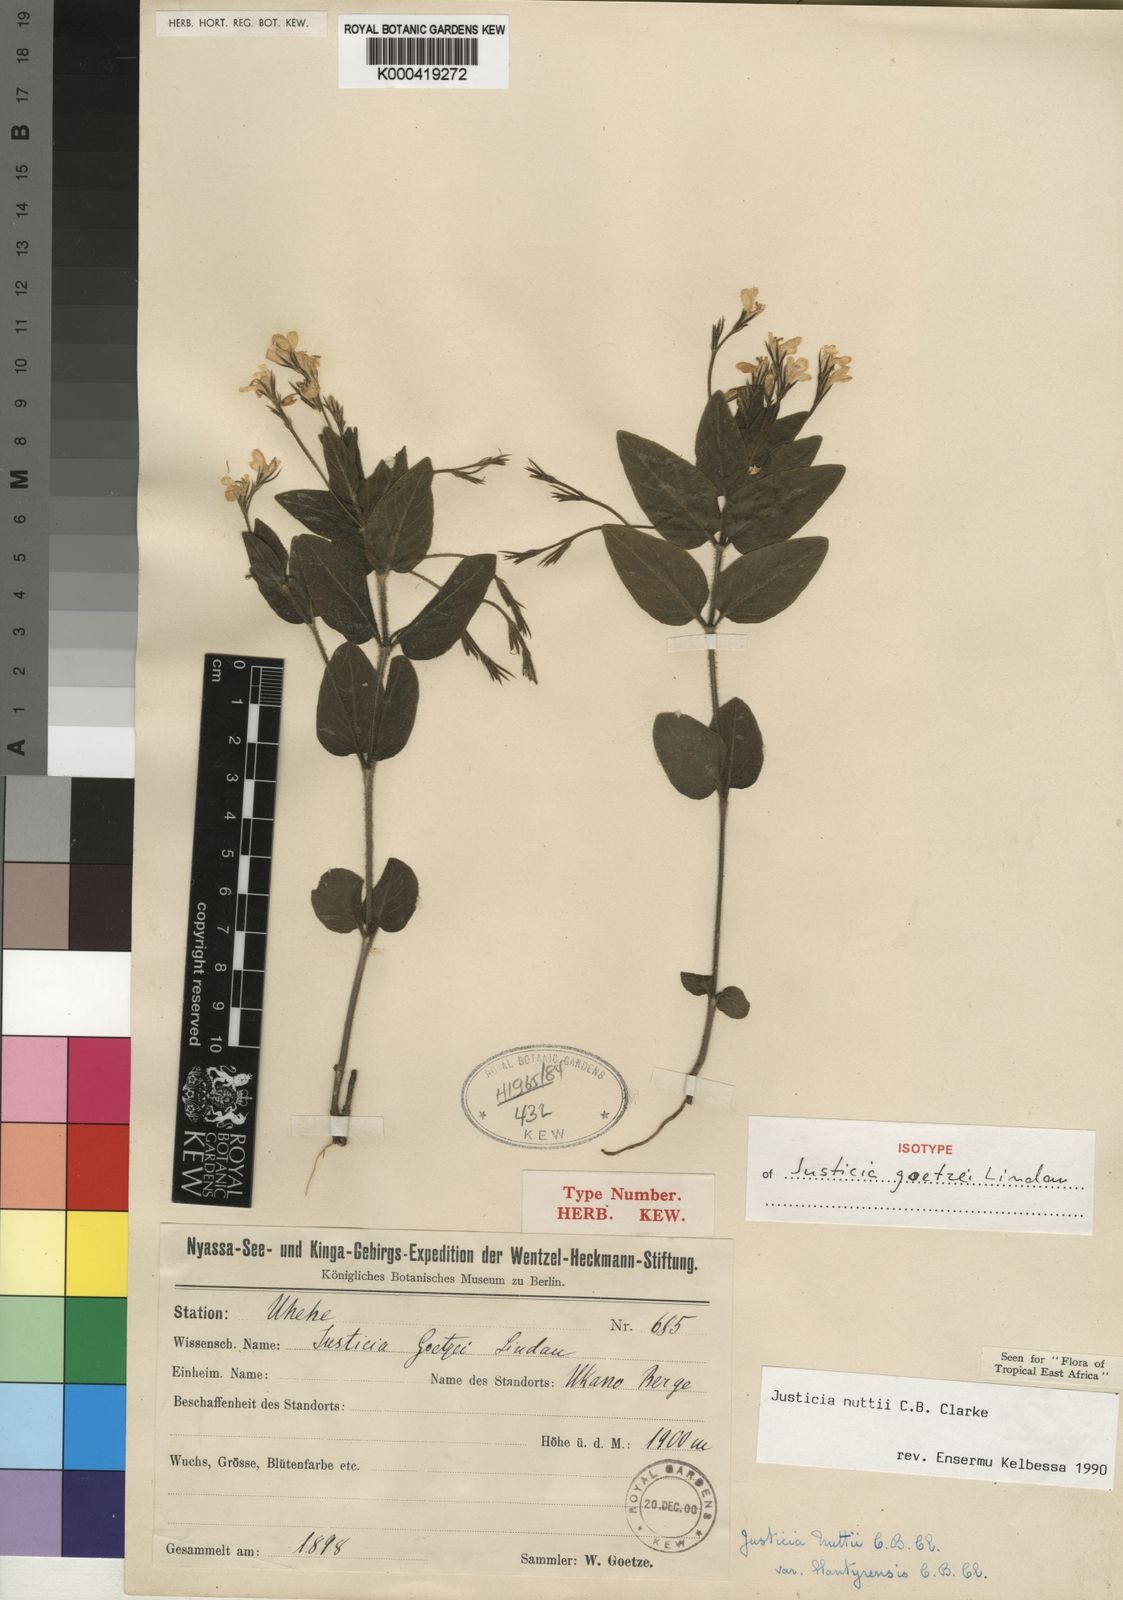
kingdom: Plantae
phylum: Tracheophyta
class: Magnoliopsida
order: Lamiales
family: Acanthaceae
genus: Justicia
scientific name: Justicia nuttii
